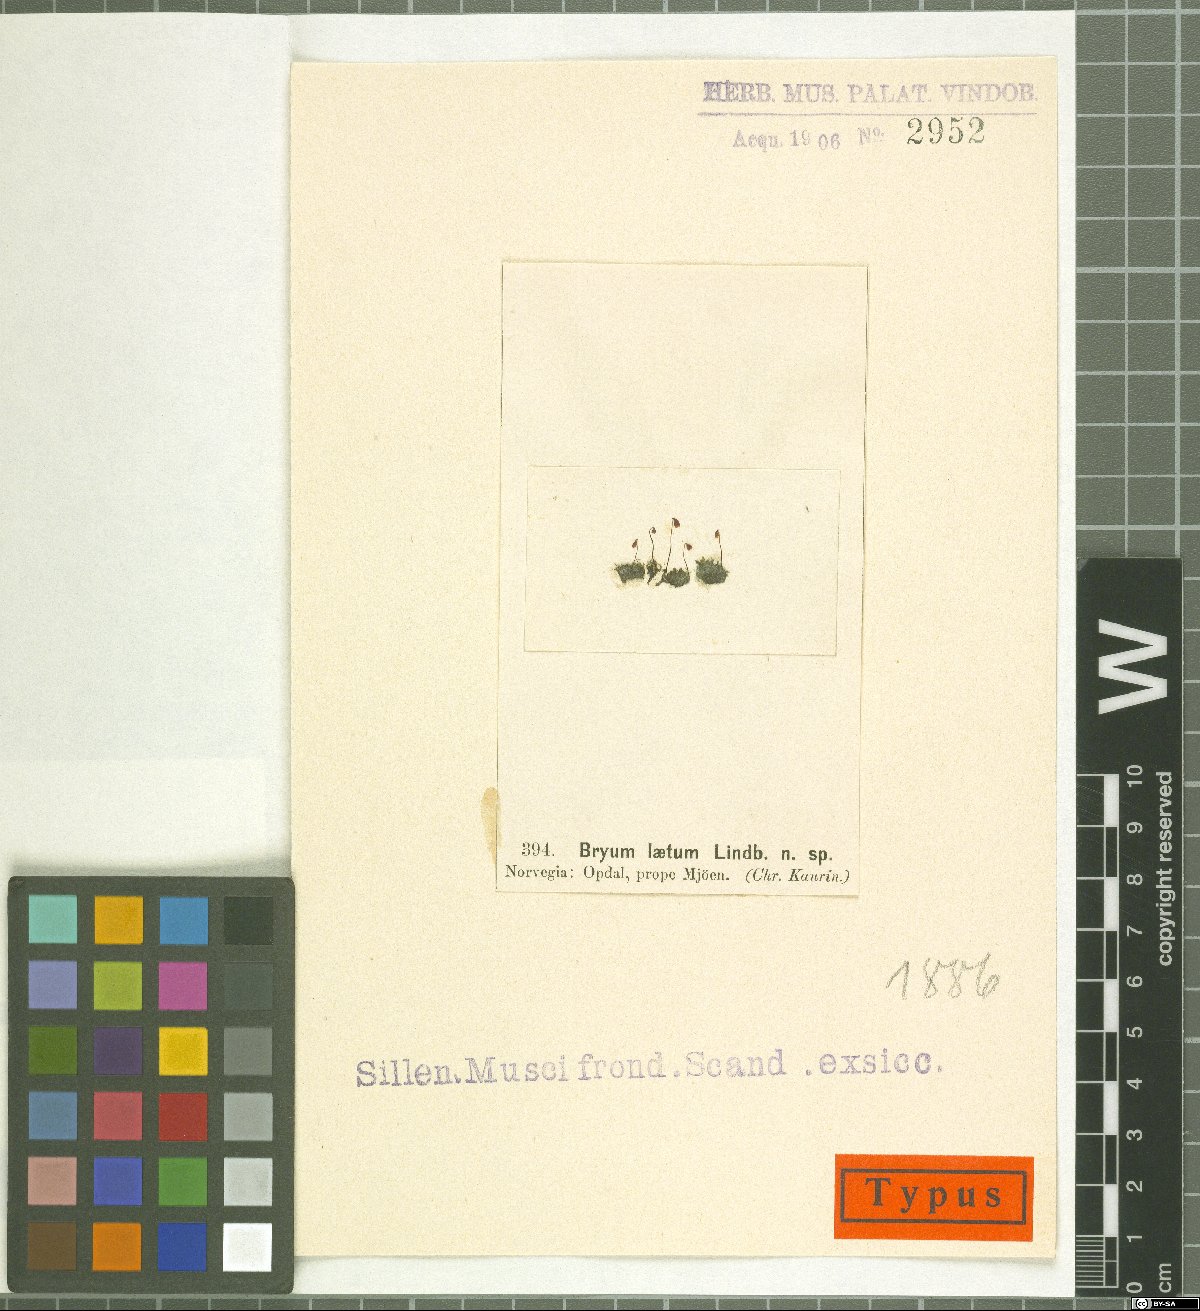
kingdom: Plantae
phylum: Bryophyta
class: Bryopsida
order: Bryales
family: Bryaceae
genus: Bryum
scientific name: Bryum oblongum
